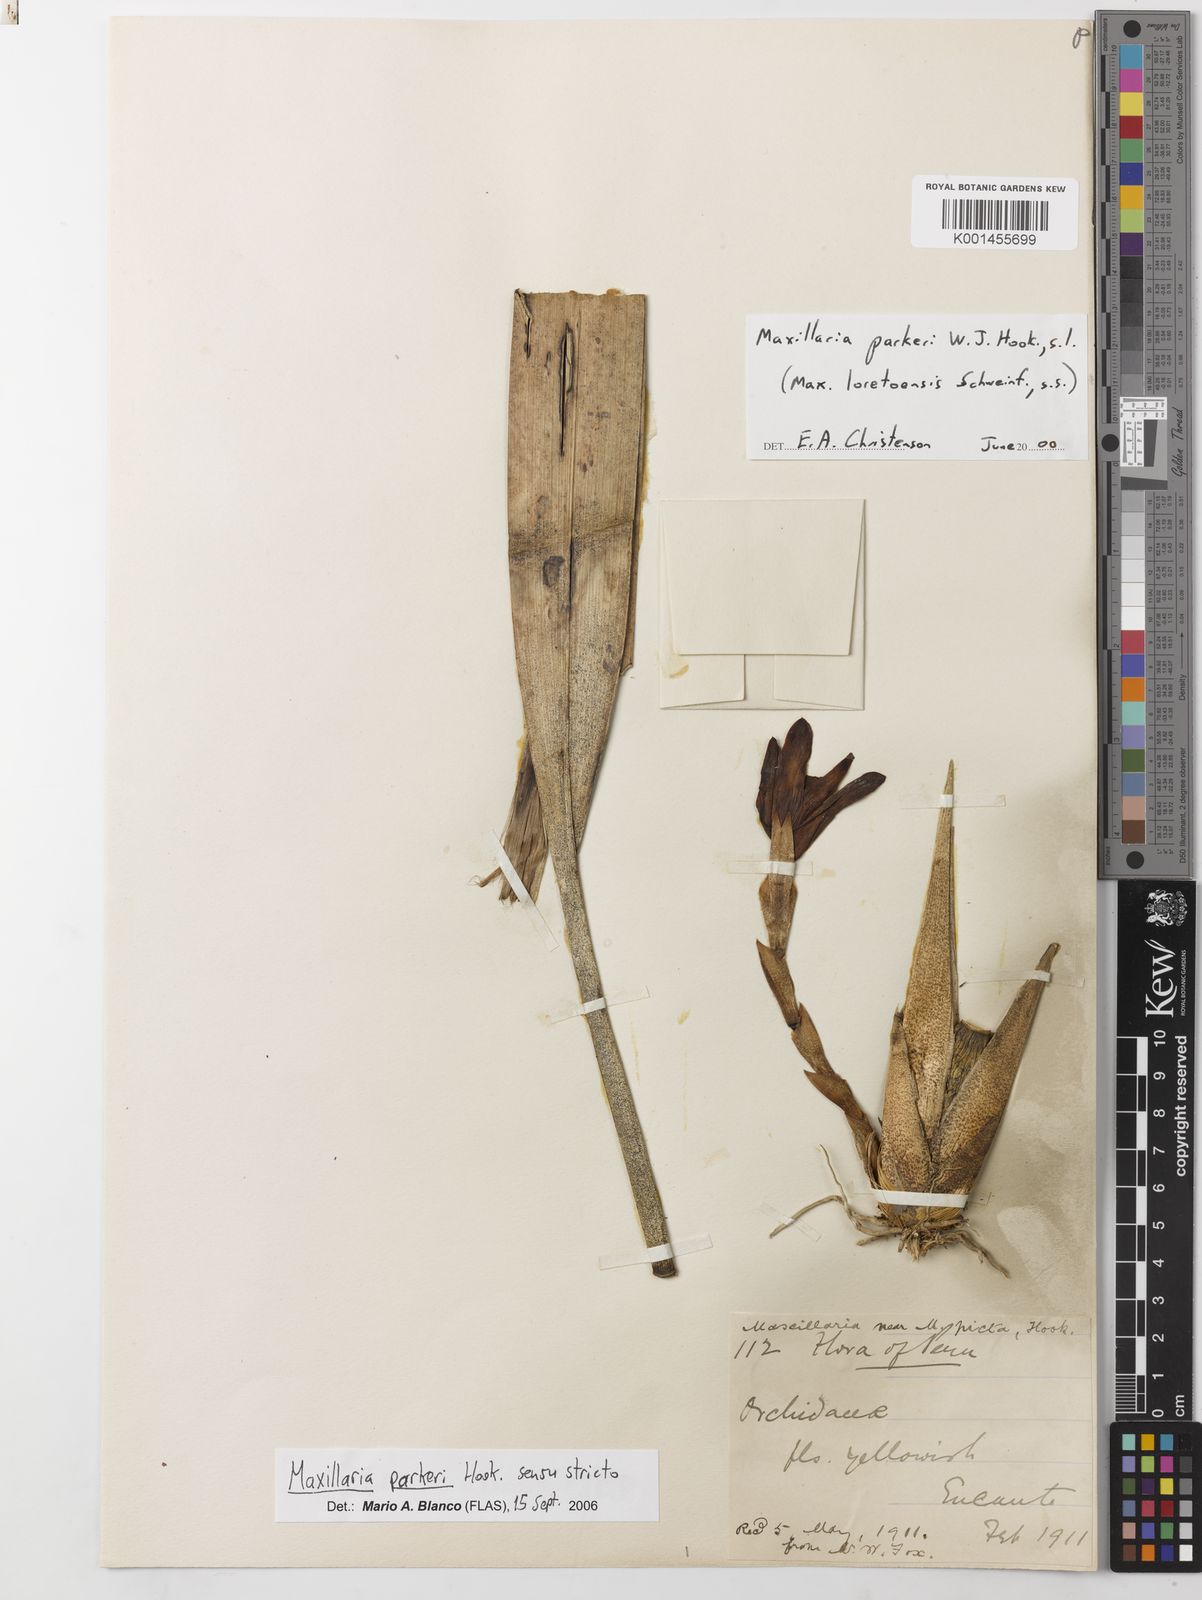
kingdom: Plantae
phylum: Tracheophyta
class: Liliopsida
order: Asparagales
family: Orchidaceae
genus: Maxillaria
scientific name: Maxillaria parkeri
